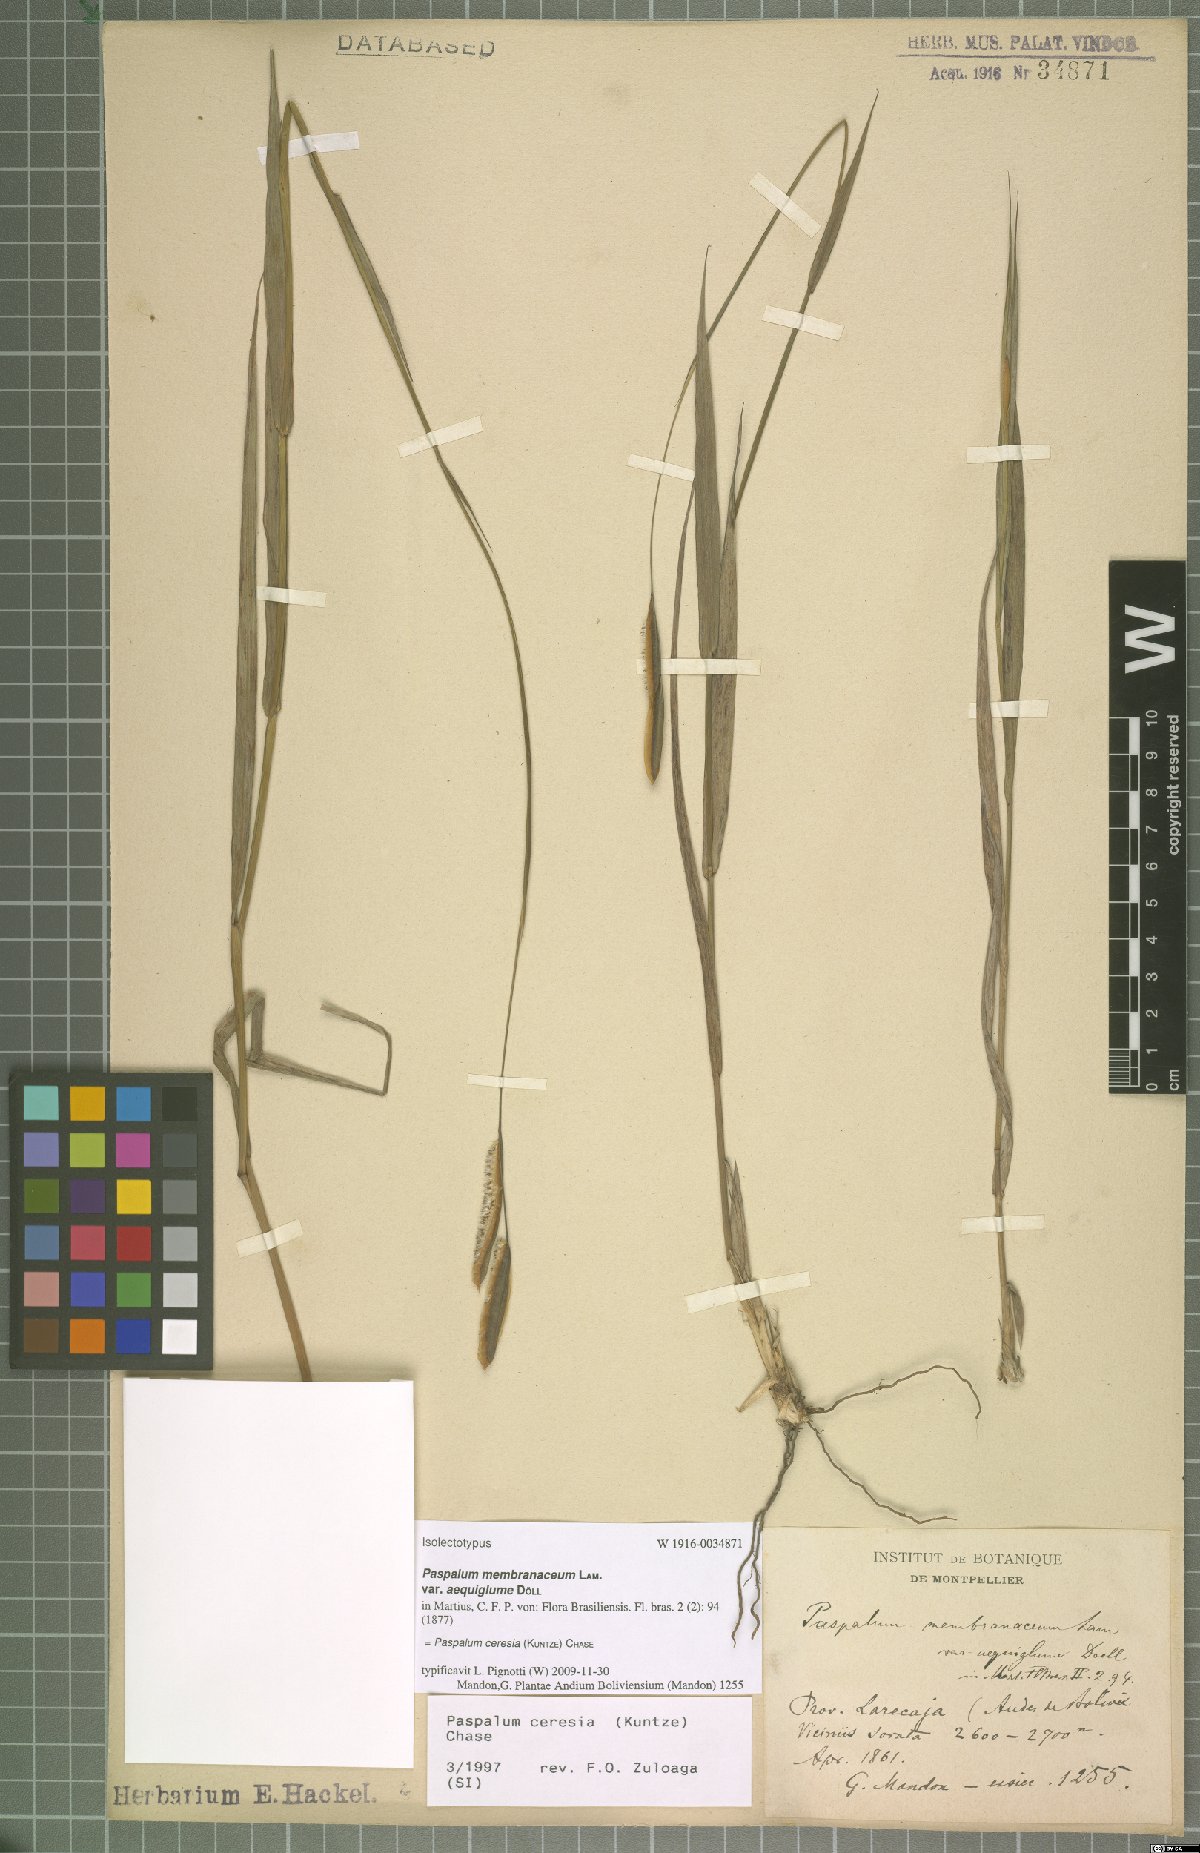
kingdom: Plantae
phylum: Tracheophyta
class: Liliopsida
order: Poales
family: Poaceae
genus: Paspalum
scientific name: Paspalum ceresia
